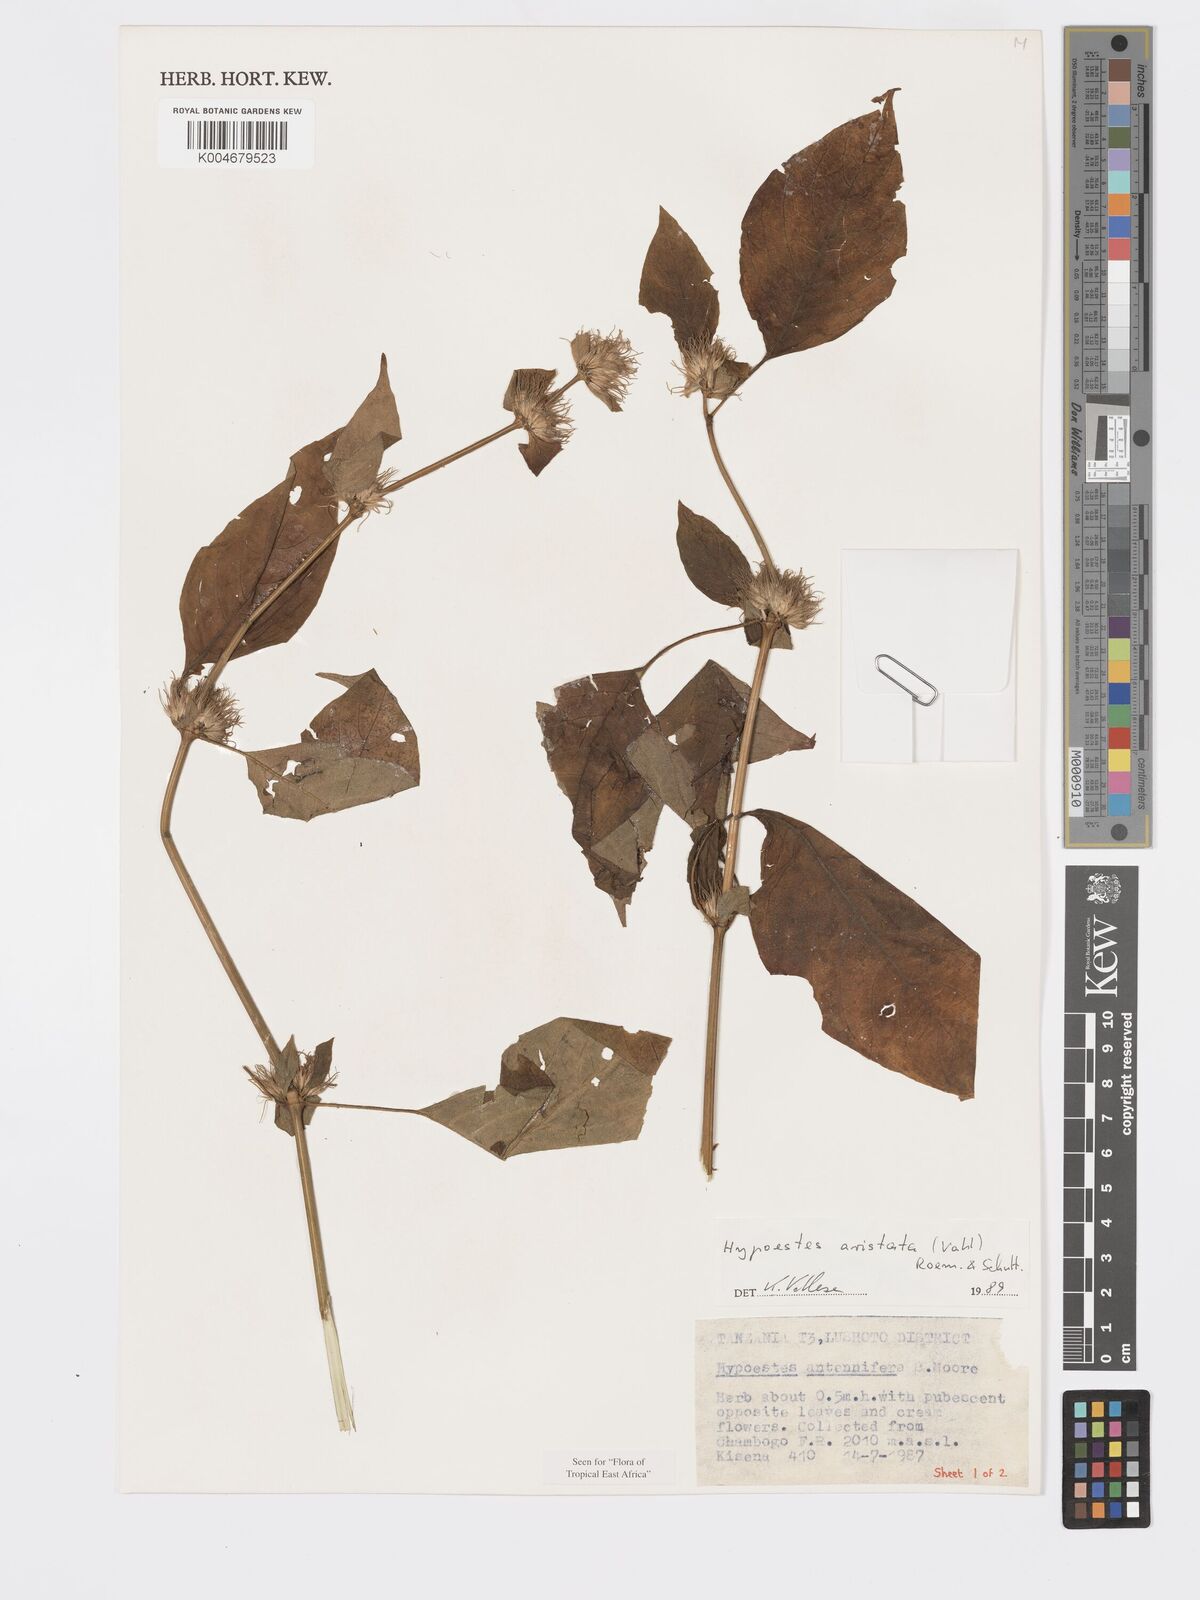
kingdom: Plantae
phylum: Tracheophyta
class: Magnoliopsida
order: Lamiales
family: Acanthaceae
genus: Hypoestes
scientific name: Hypoestes aristata
